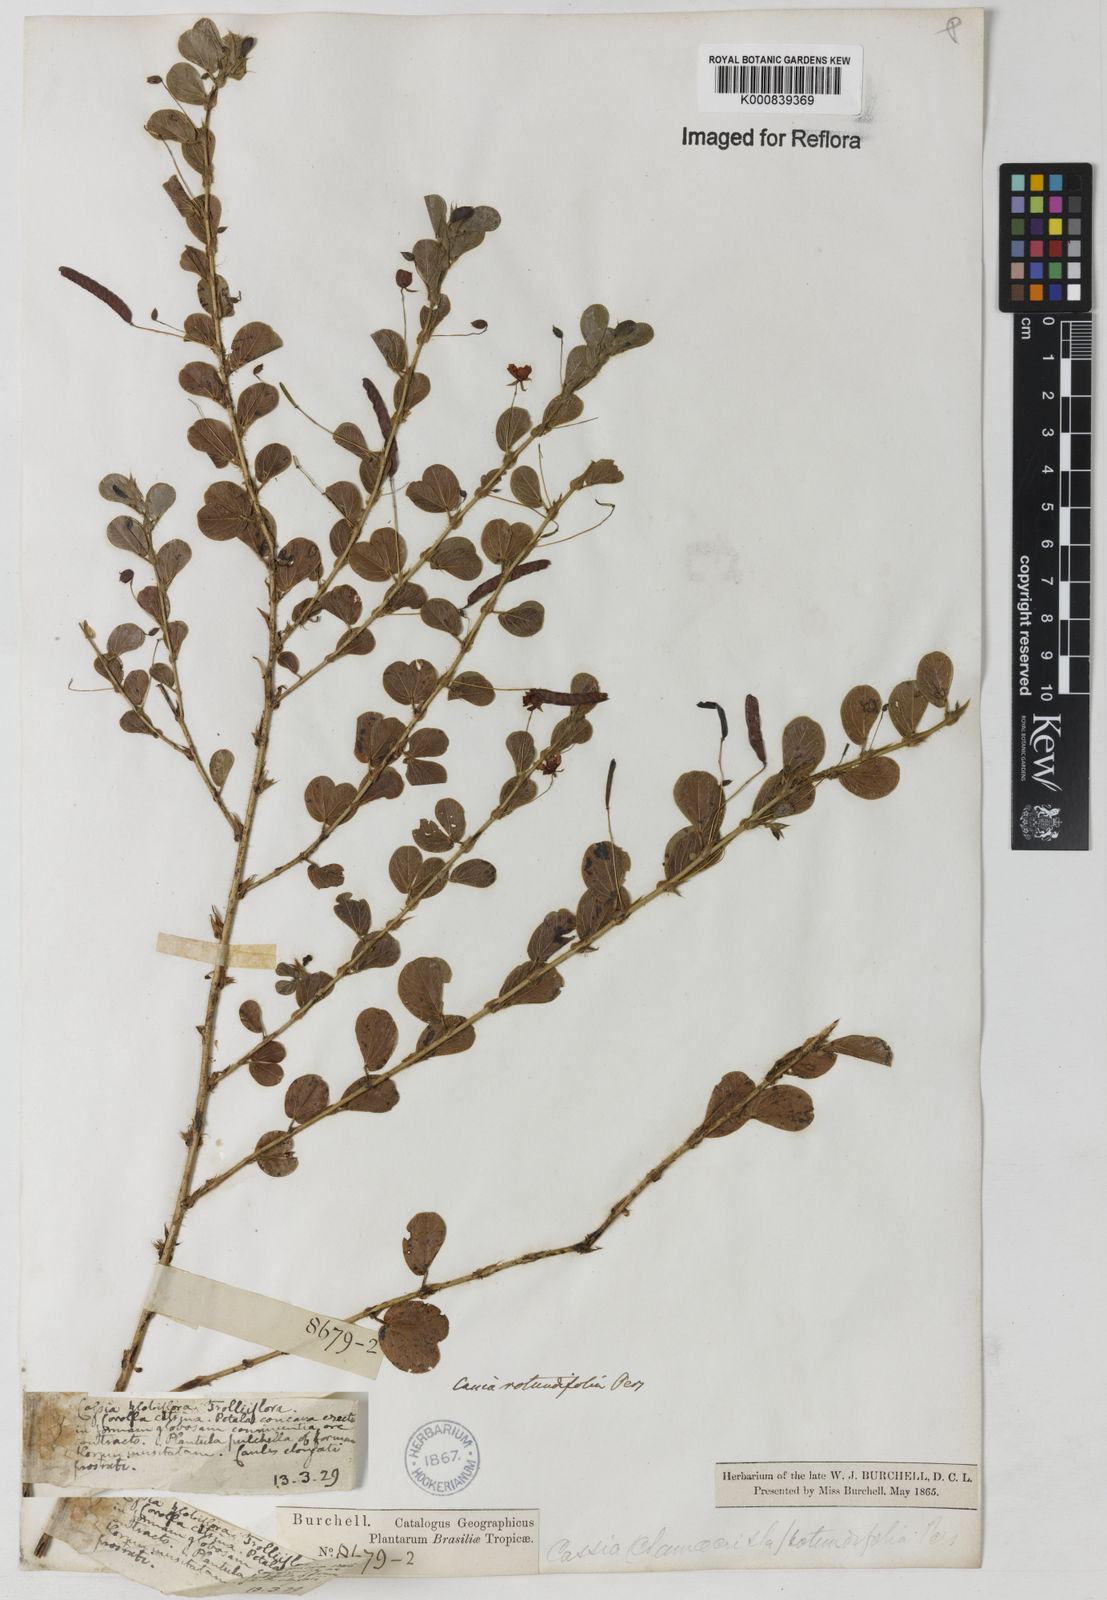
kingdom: Plantae
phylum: Tracheophyta
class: Magnoliopsida
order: Fabales
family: Fabaceae
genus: Chamaecrista
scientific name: Chamaecrista rotundifolia
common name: Round-leaf cassia
